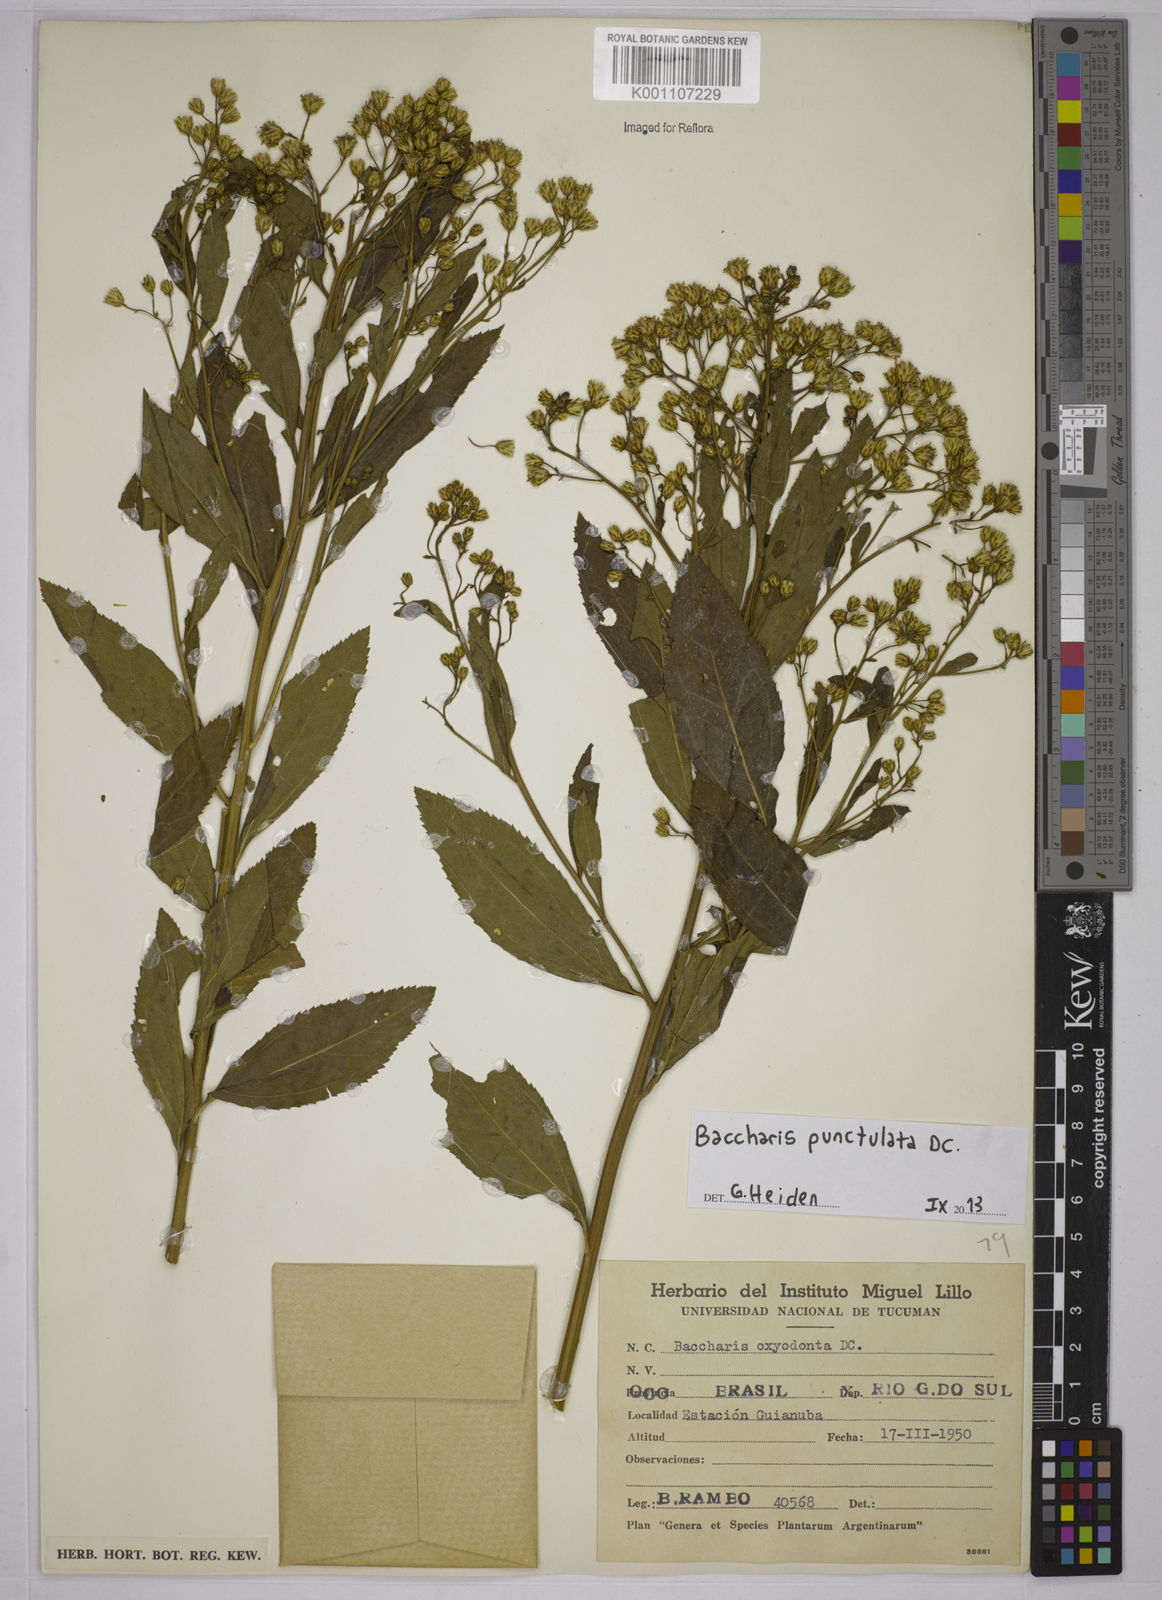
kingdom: Plantae
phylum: Tracheophyta
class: Magnoliopsida
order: Asterales
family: Asteraceae
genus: Baccharis
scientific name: Baccharis punctulata
